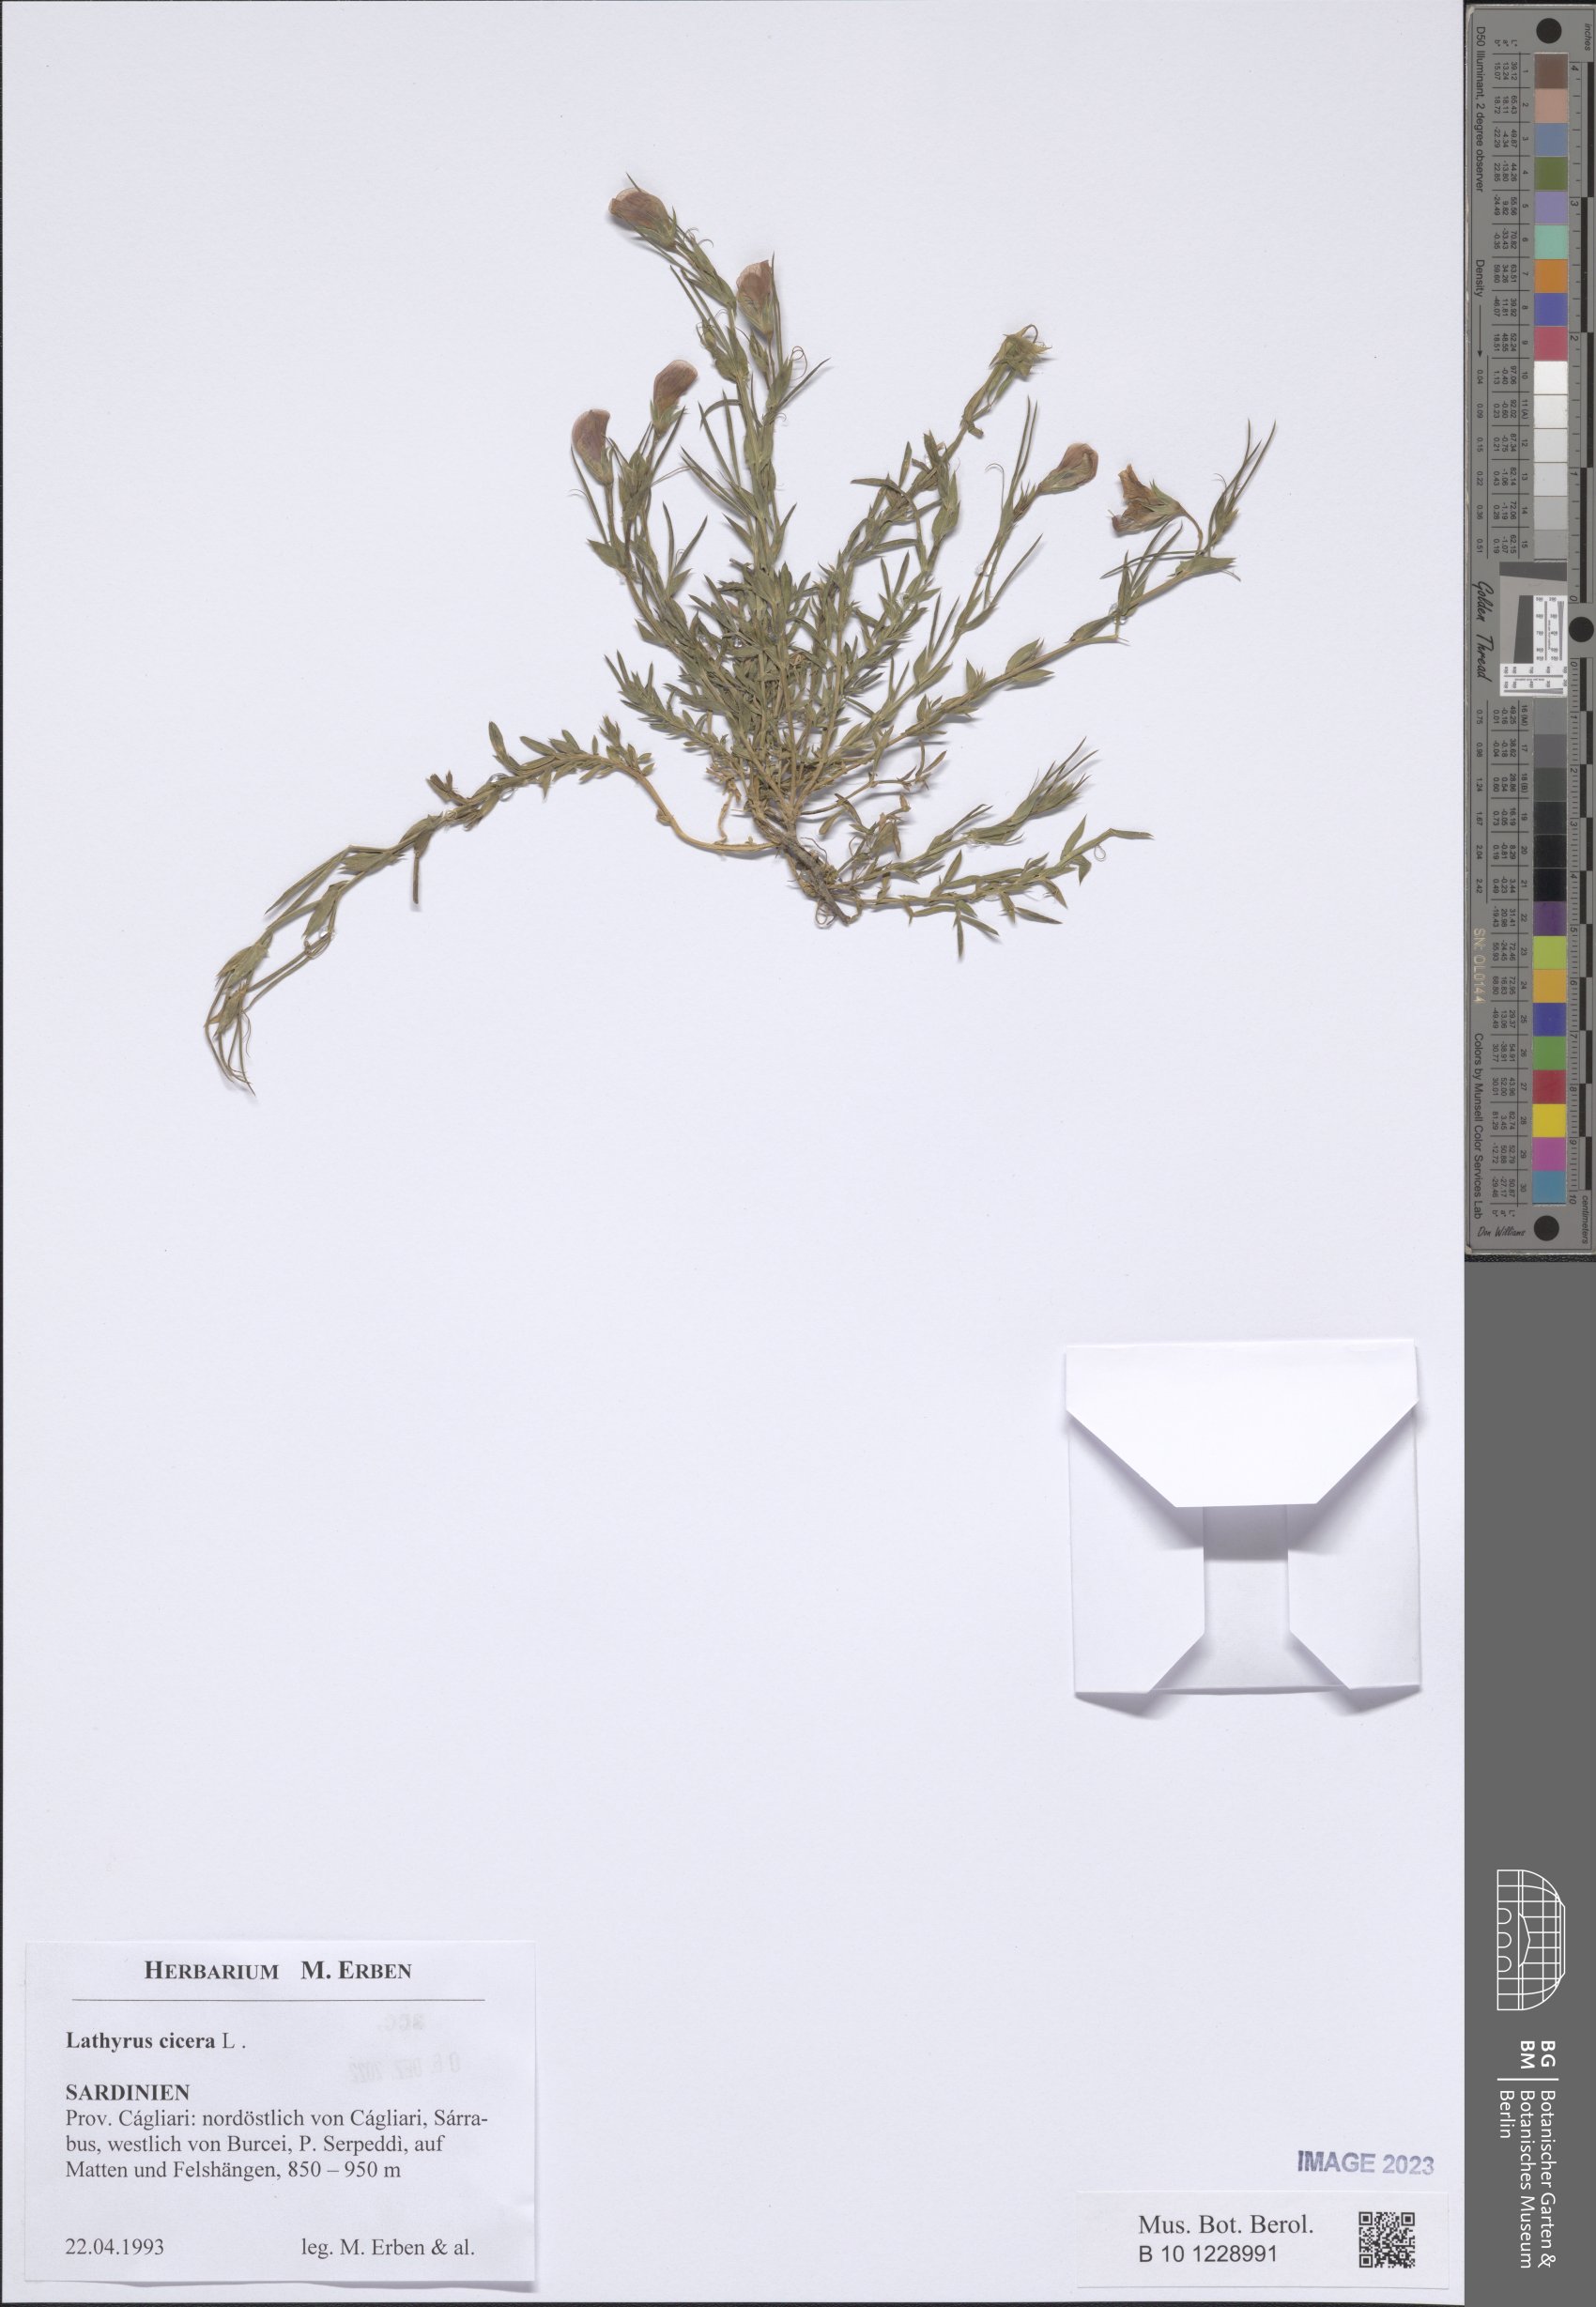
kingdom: Plantae
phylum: Tracheophyta
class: Magnoliopsida
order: Fabales
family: Fabaceae
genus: Lathyrus
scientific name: Lathyrus cicera
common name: Red vetchling
